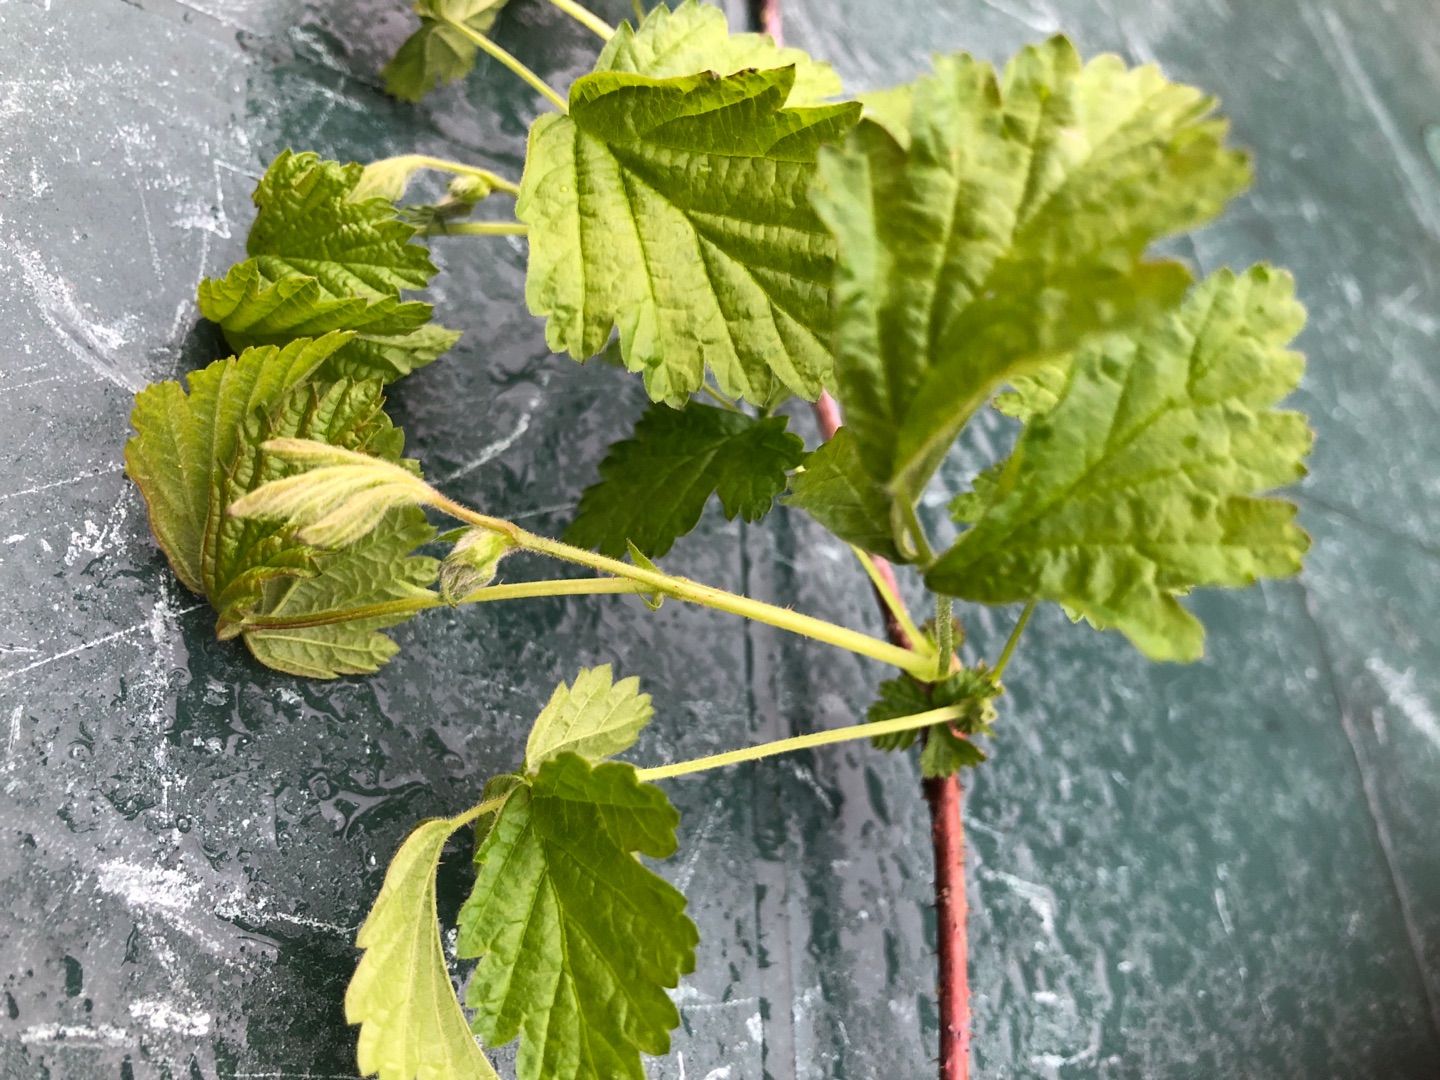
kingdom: Plantae
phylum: Tracheophyta
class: Magnoliopsida
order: Rosales
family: Rosaceae
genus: Rubus
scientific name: Rubus
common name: Klyngerslægten
